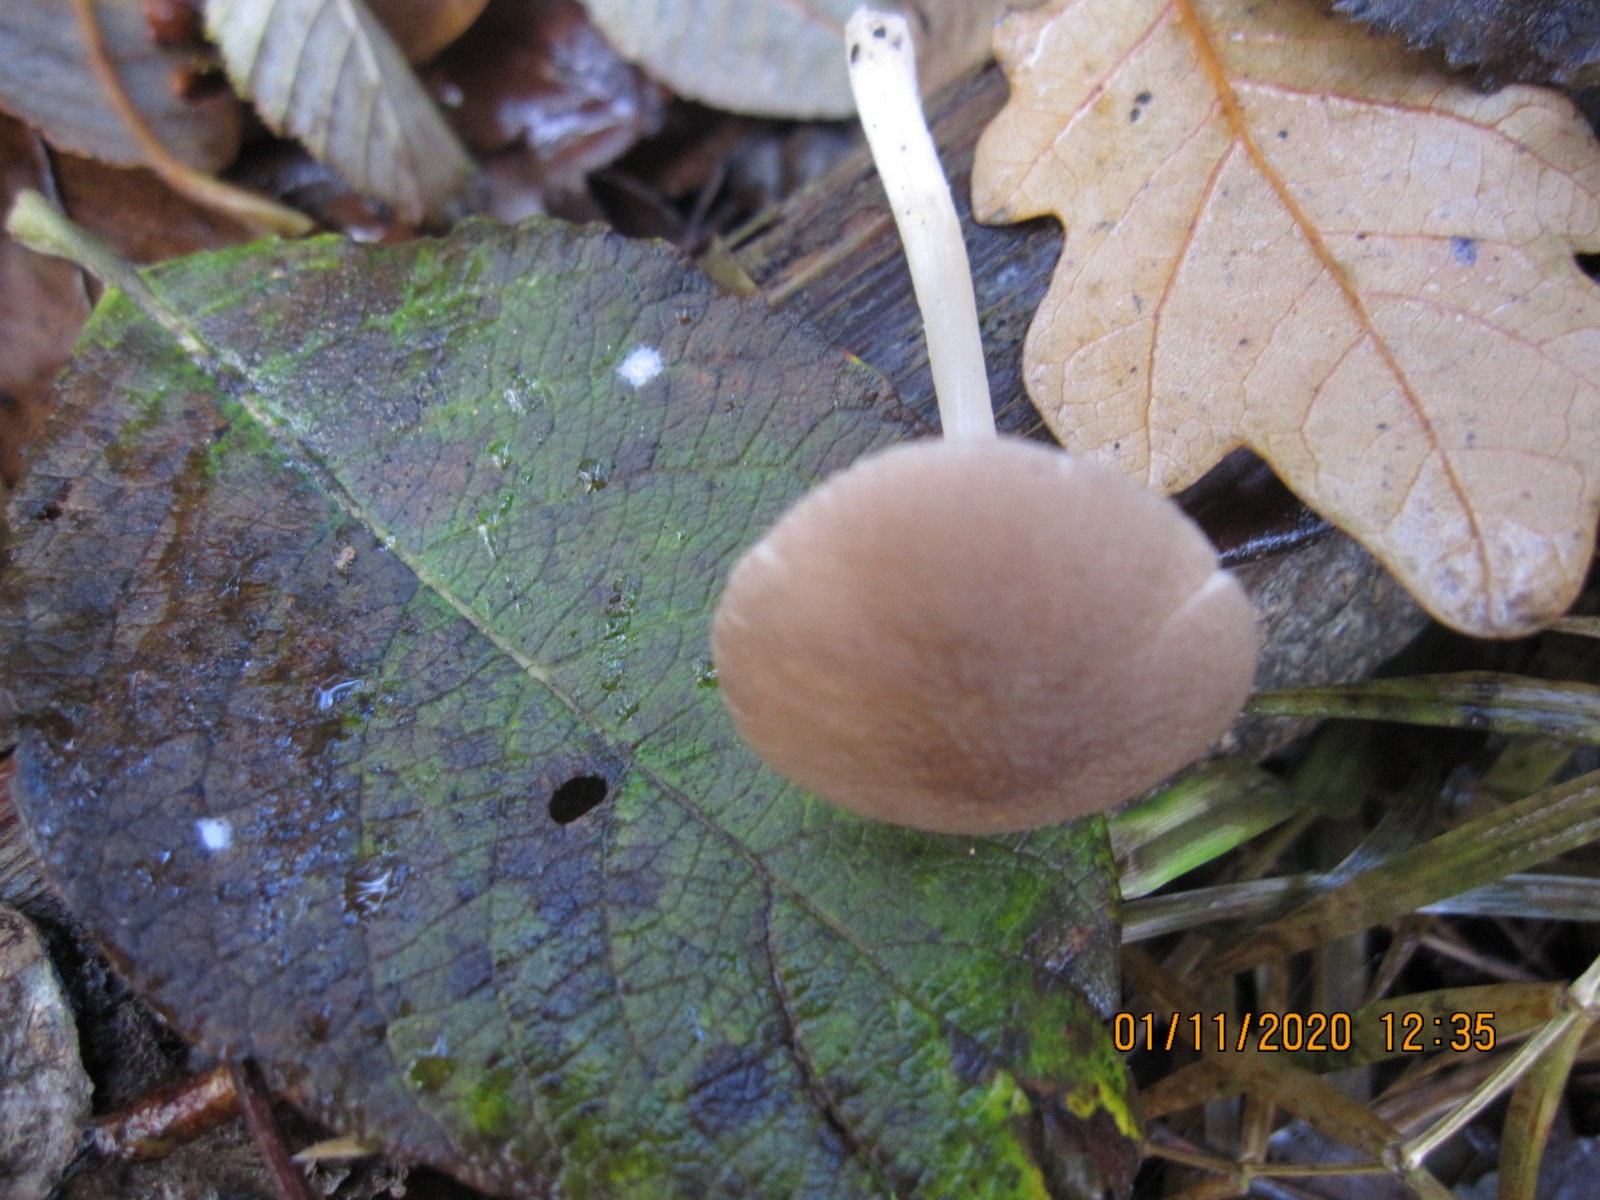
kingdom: Fungi
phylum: Basidiomycota
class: Agaricomycetes
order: Agaricales
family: Pluteaceae
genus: Pluteus
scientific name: Pluteus phlebophorus
